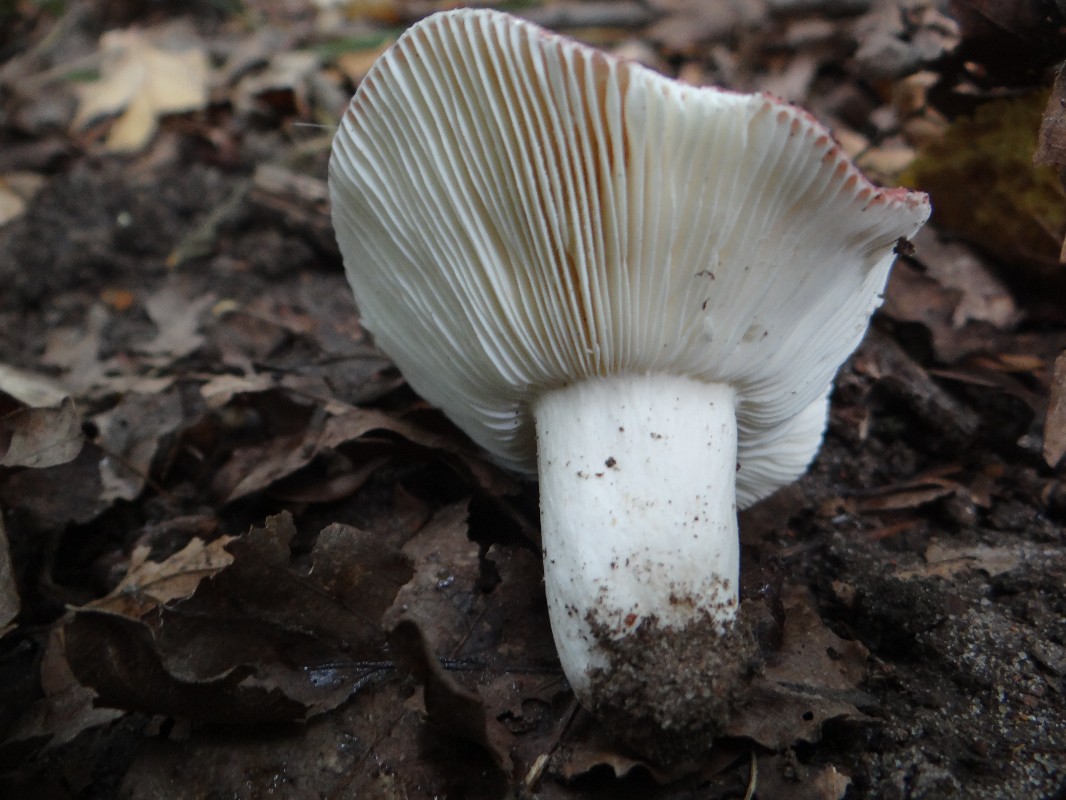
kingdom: Fungi
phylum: Basidiomycota
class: Agaricomycetes
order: Russulales
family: Russulaceae
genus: Russula
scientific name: Russula atropurpurea
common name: purpurbroget skørhat
